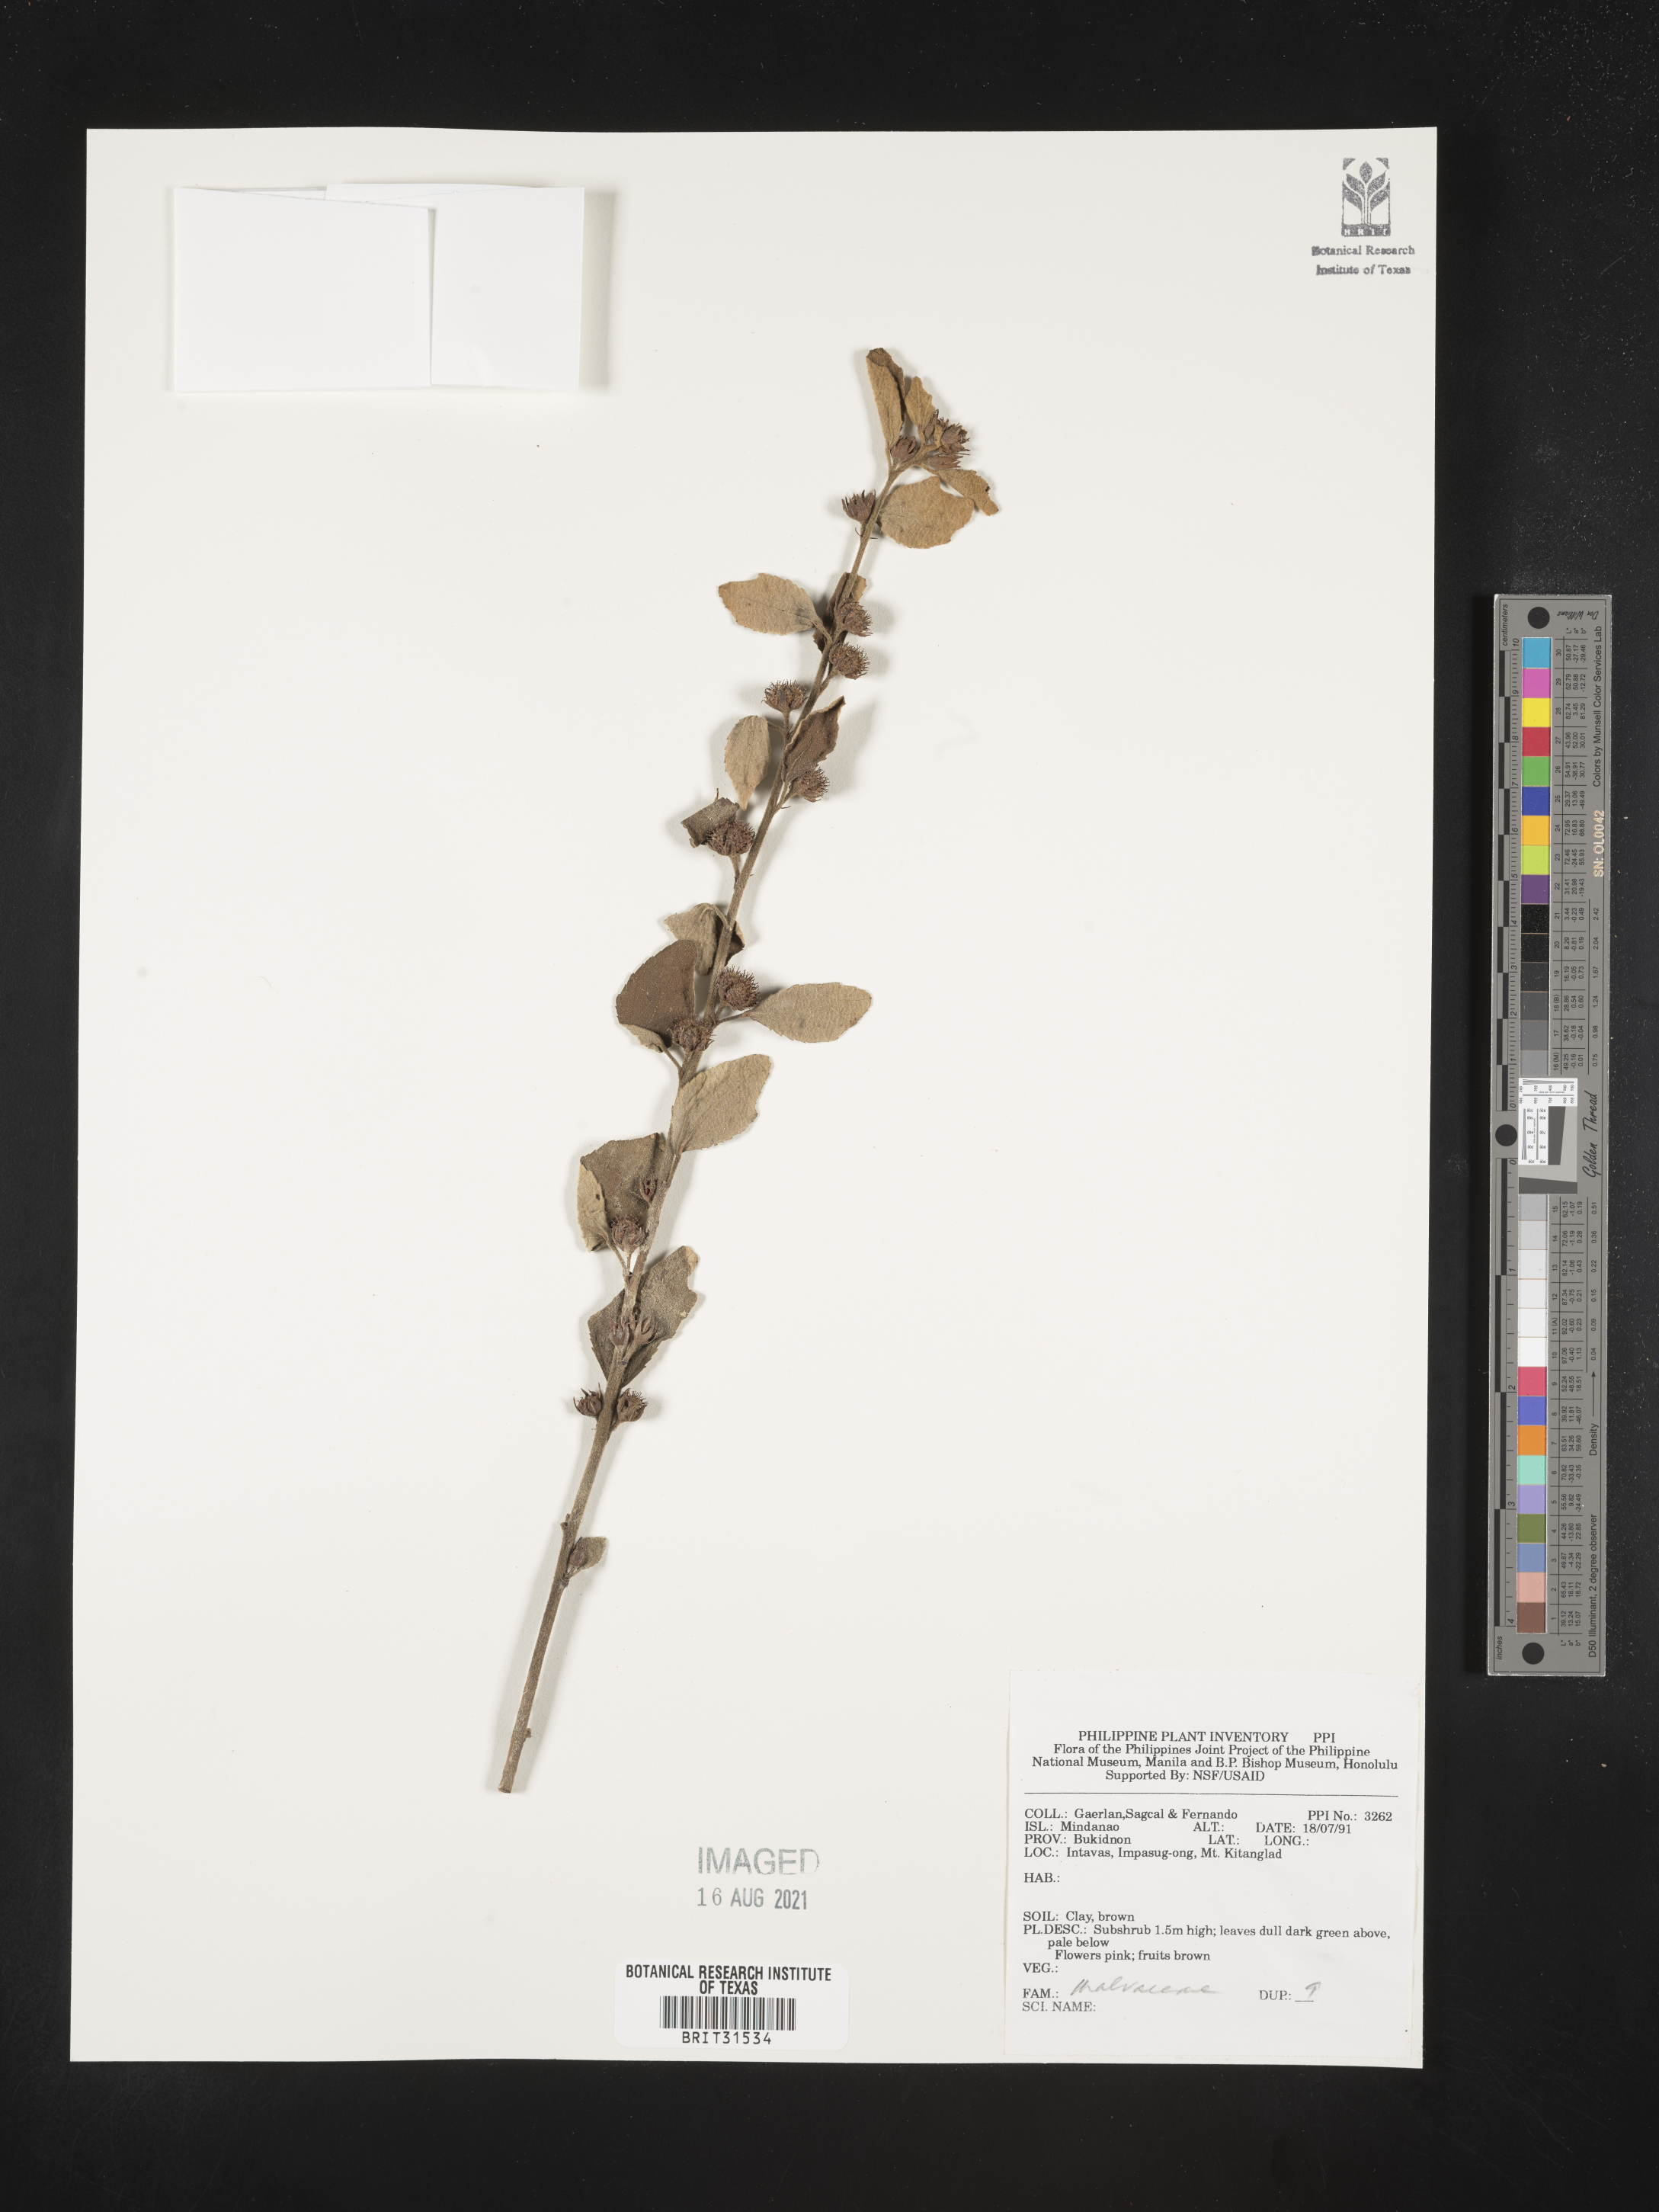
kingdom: Plantae
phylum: Tracheophyta
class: Magnoliopsida
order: Malvales
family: Malvaceae
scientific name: Malvaceae
